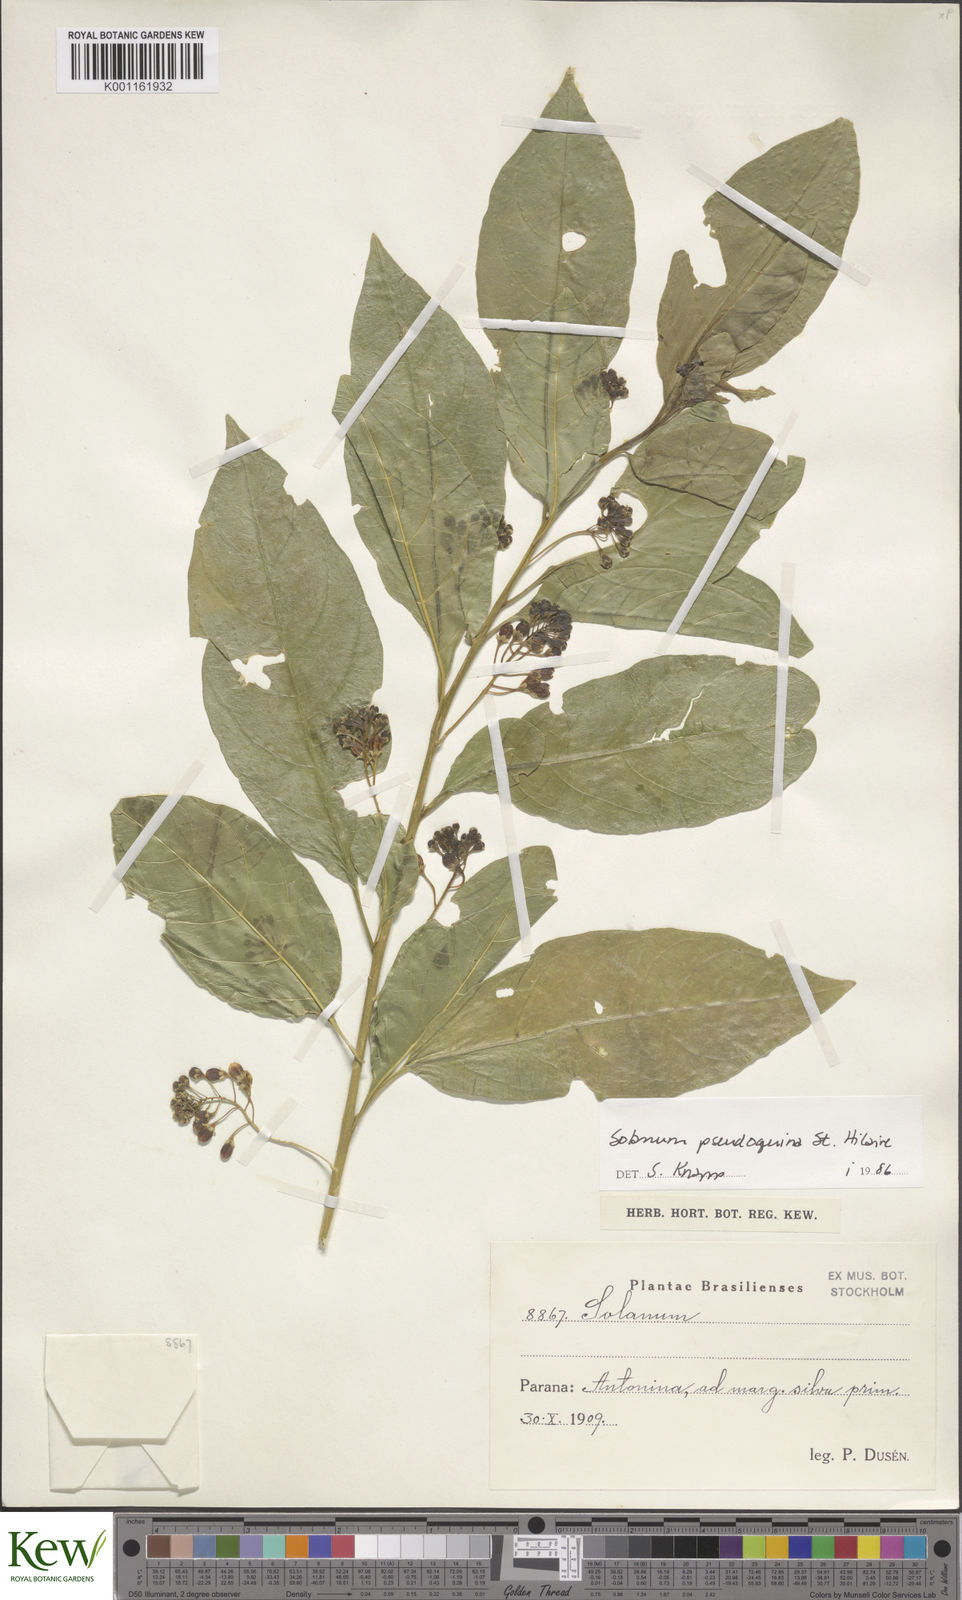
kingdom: Plantae
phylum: Tracheophyta
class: Magnoliopsida
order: Solanales
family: Solanaceae
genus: Solanum
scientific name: Solanum pseudoquina
